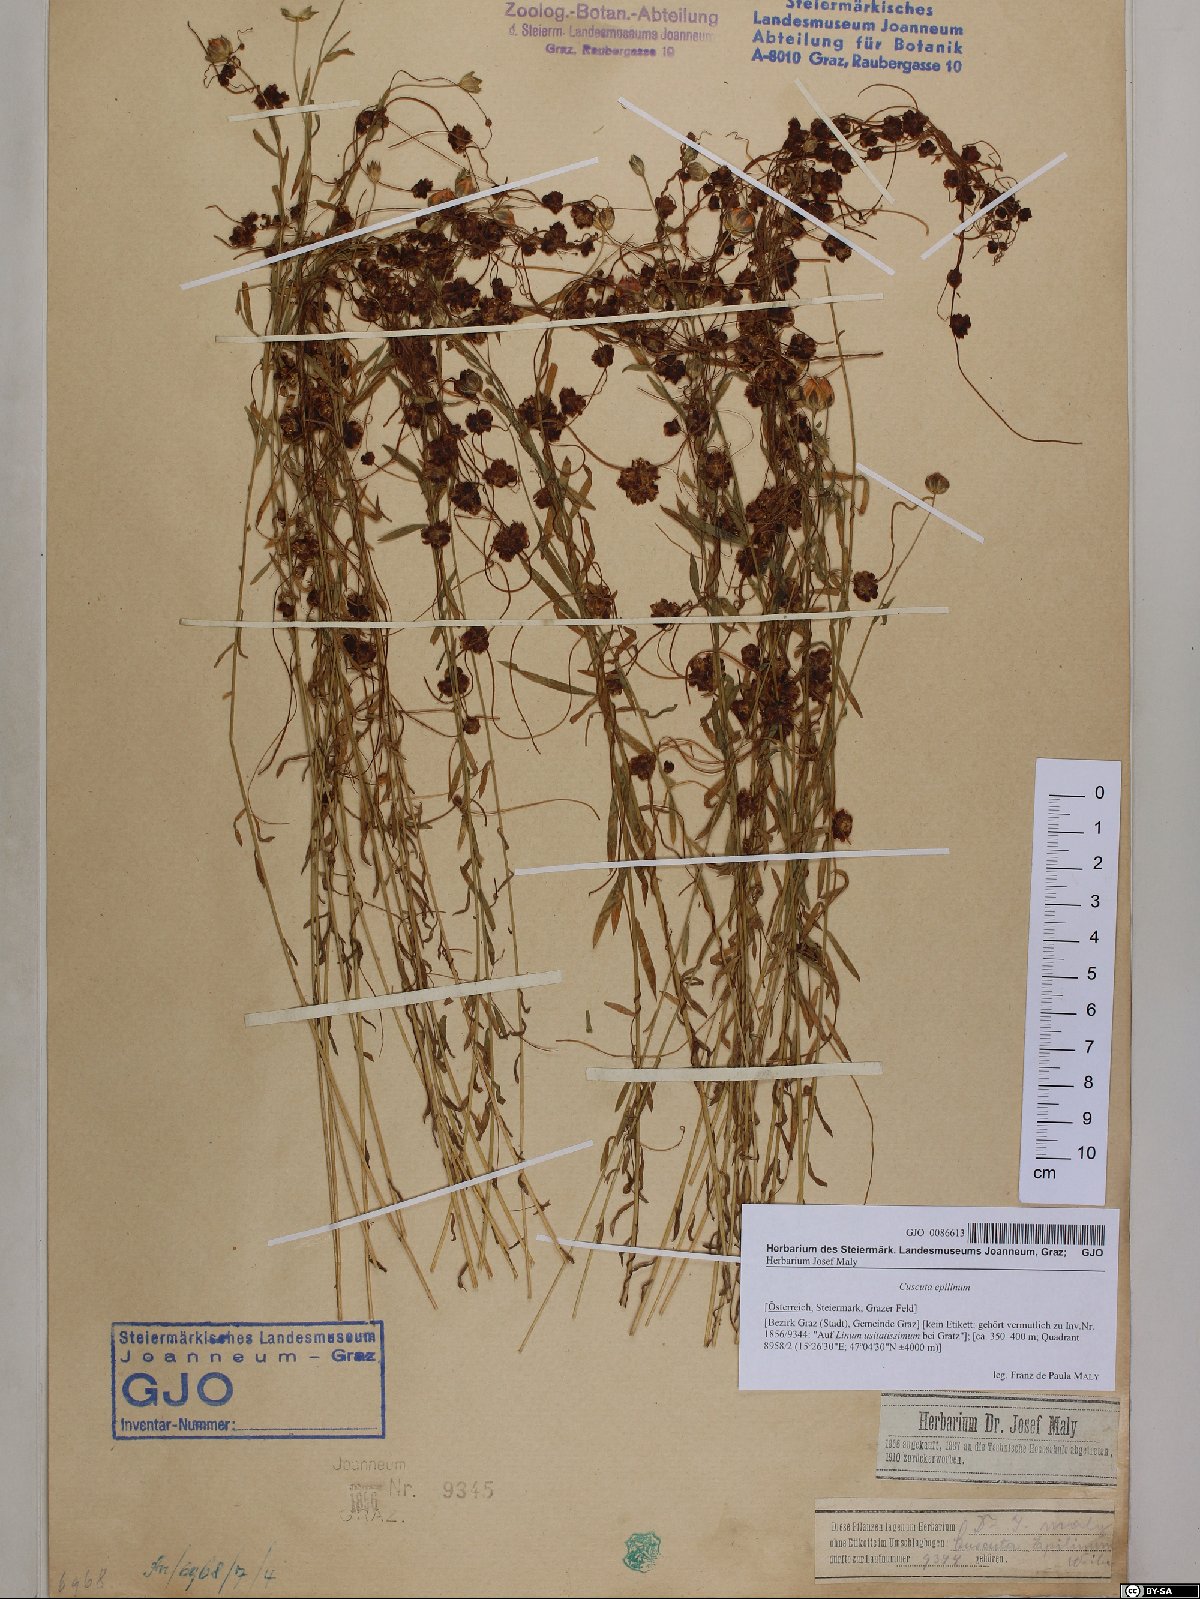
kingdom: Plantae
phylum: Tracheophyta
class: Magnoliopsida
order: Solanales
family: Convolvulaceae
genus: Cuscuta
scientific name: Cuscuta epilinum
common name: Flax dodder
